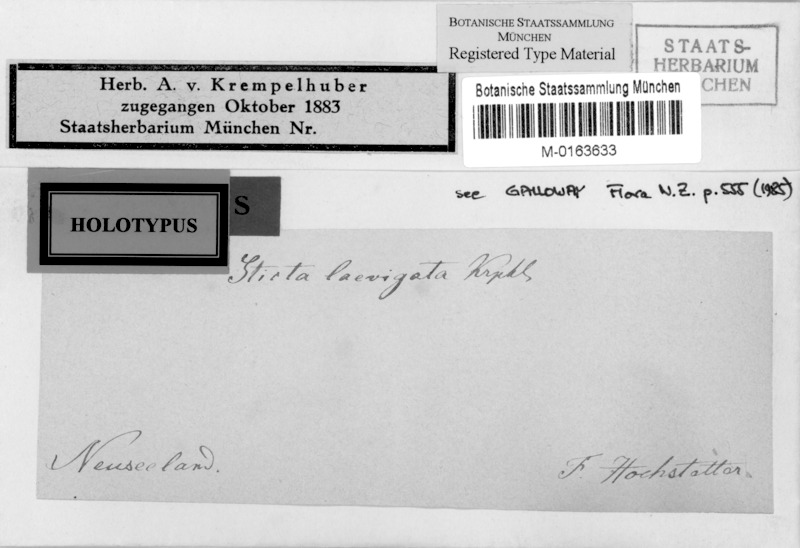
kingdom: Fungi
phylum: Ascomycota
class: Lecanoromycetes
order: Peltigerales
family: Lobariaceae
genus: Sticta
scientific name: Sticta filix
